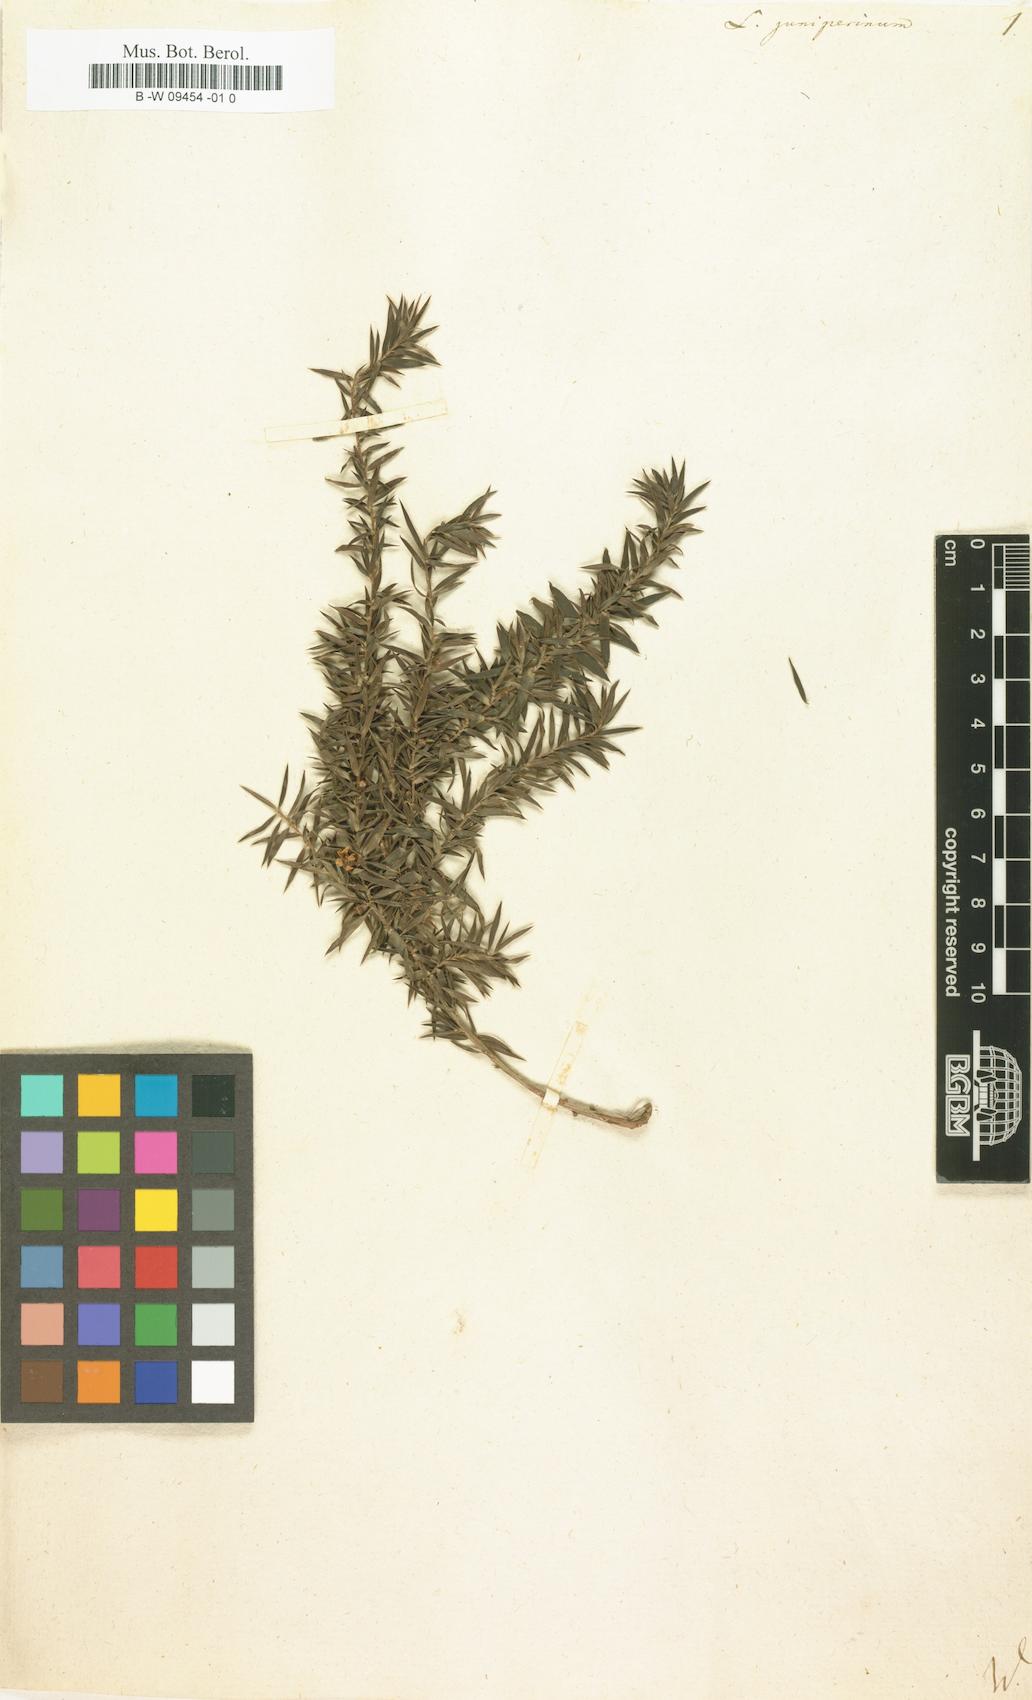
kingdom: Plantae
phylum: Tracheophyta
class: Magnoliopsida
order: Myrtales
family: Myrtaceae
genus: Leptospermum
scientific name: Leptospermum juniperinum
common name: Prickly teatree
